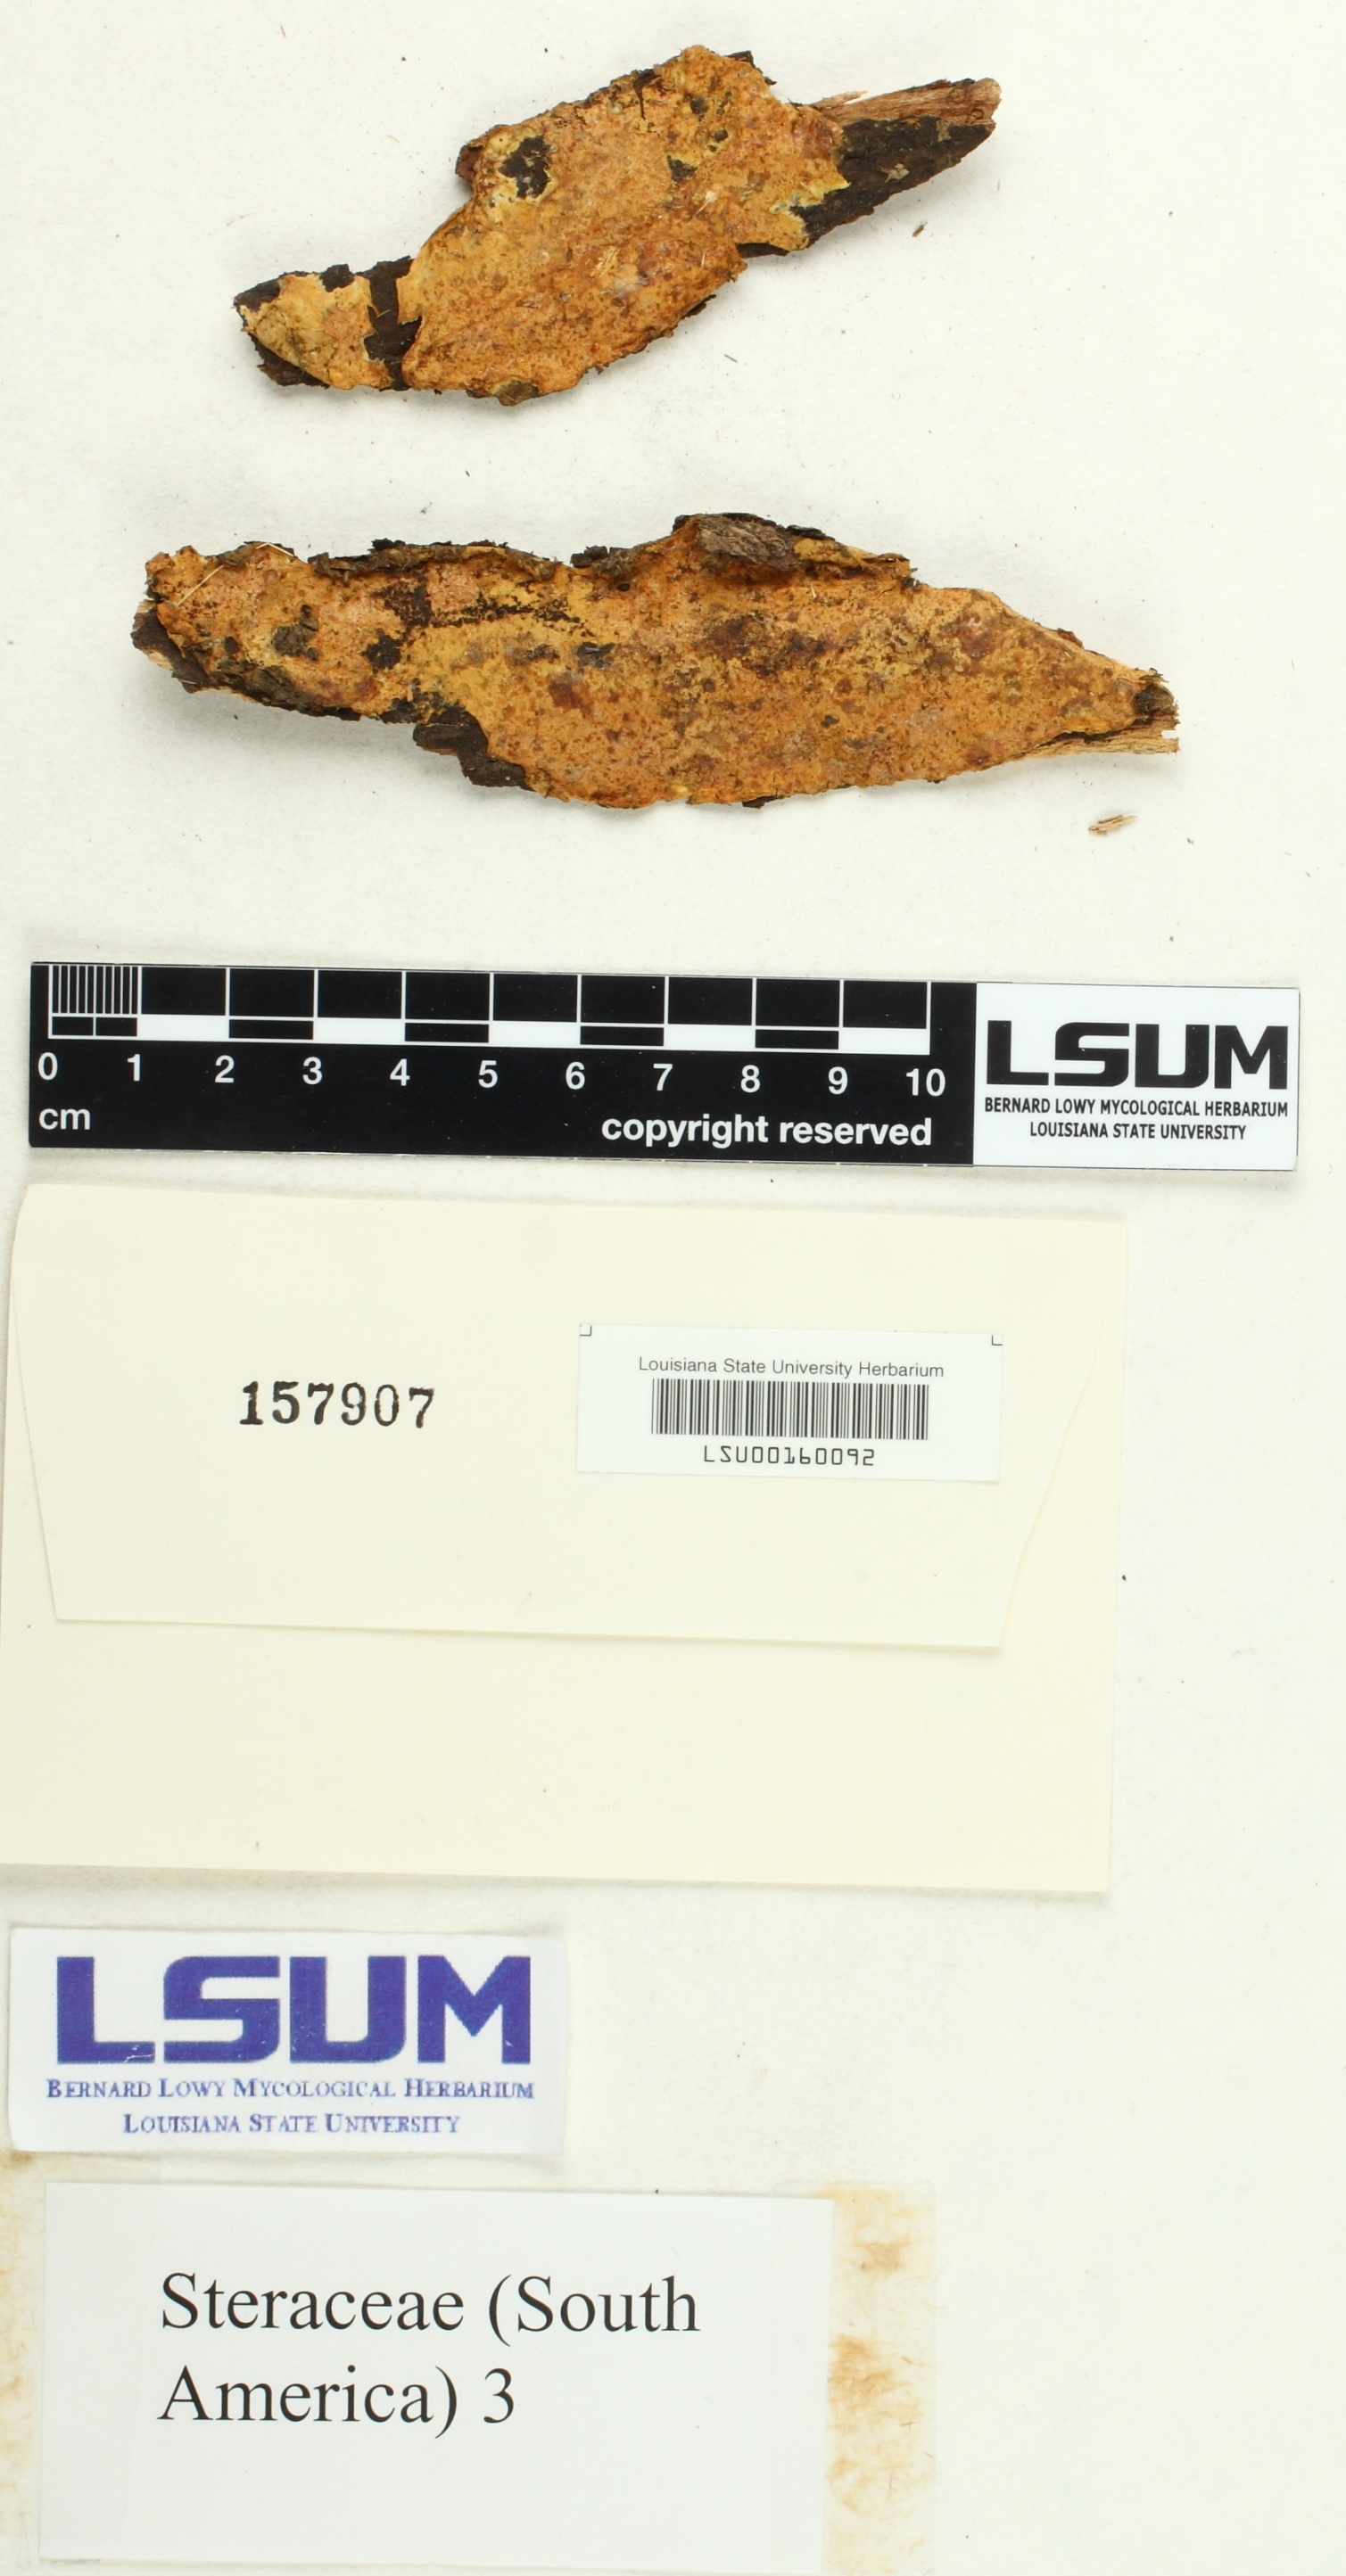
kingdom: Fungi
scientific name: Fungi
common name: Fungi
